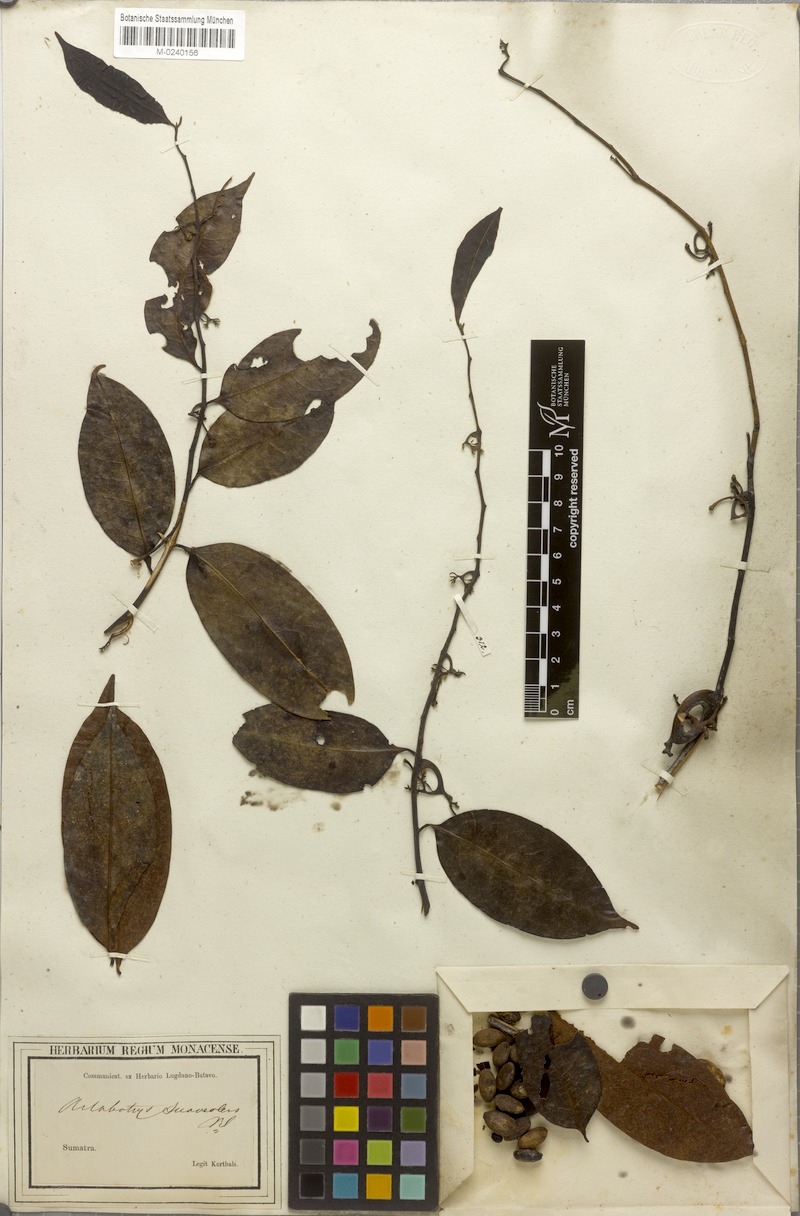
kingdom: Plantae
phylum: Tracheophyta
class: Magnoliopsida
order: Magnoliales
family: Annonaceae
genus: Artabotrys
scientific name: Artabotrys suaveolens
